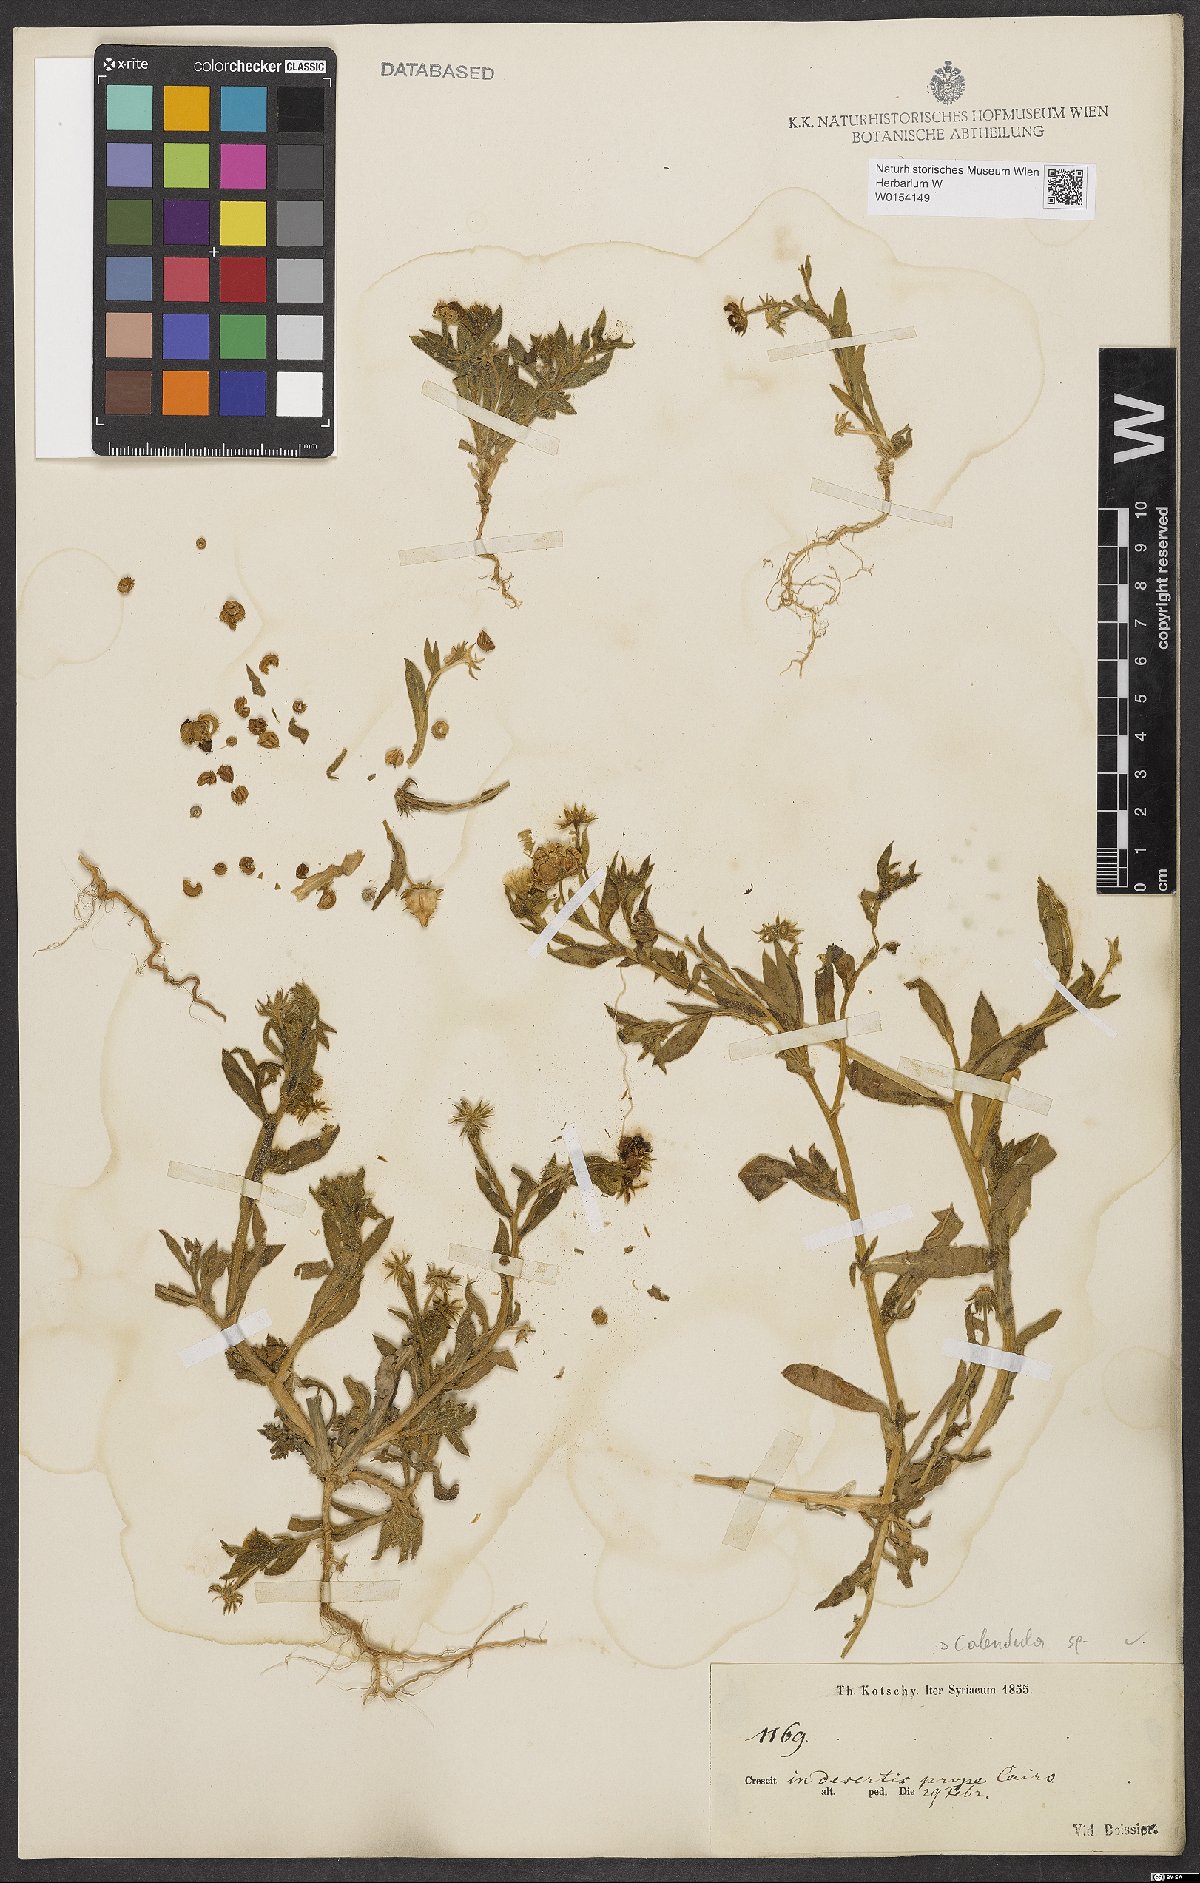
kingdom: Plantae
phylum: Tracheophyta
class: Magnoliopsida
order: Asterales
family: Asteraceae
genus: Calendula
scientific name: Calendula
